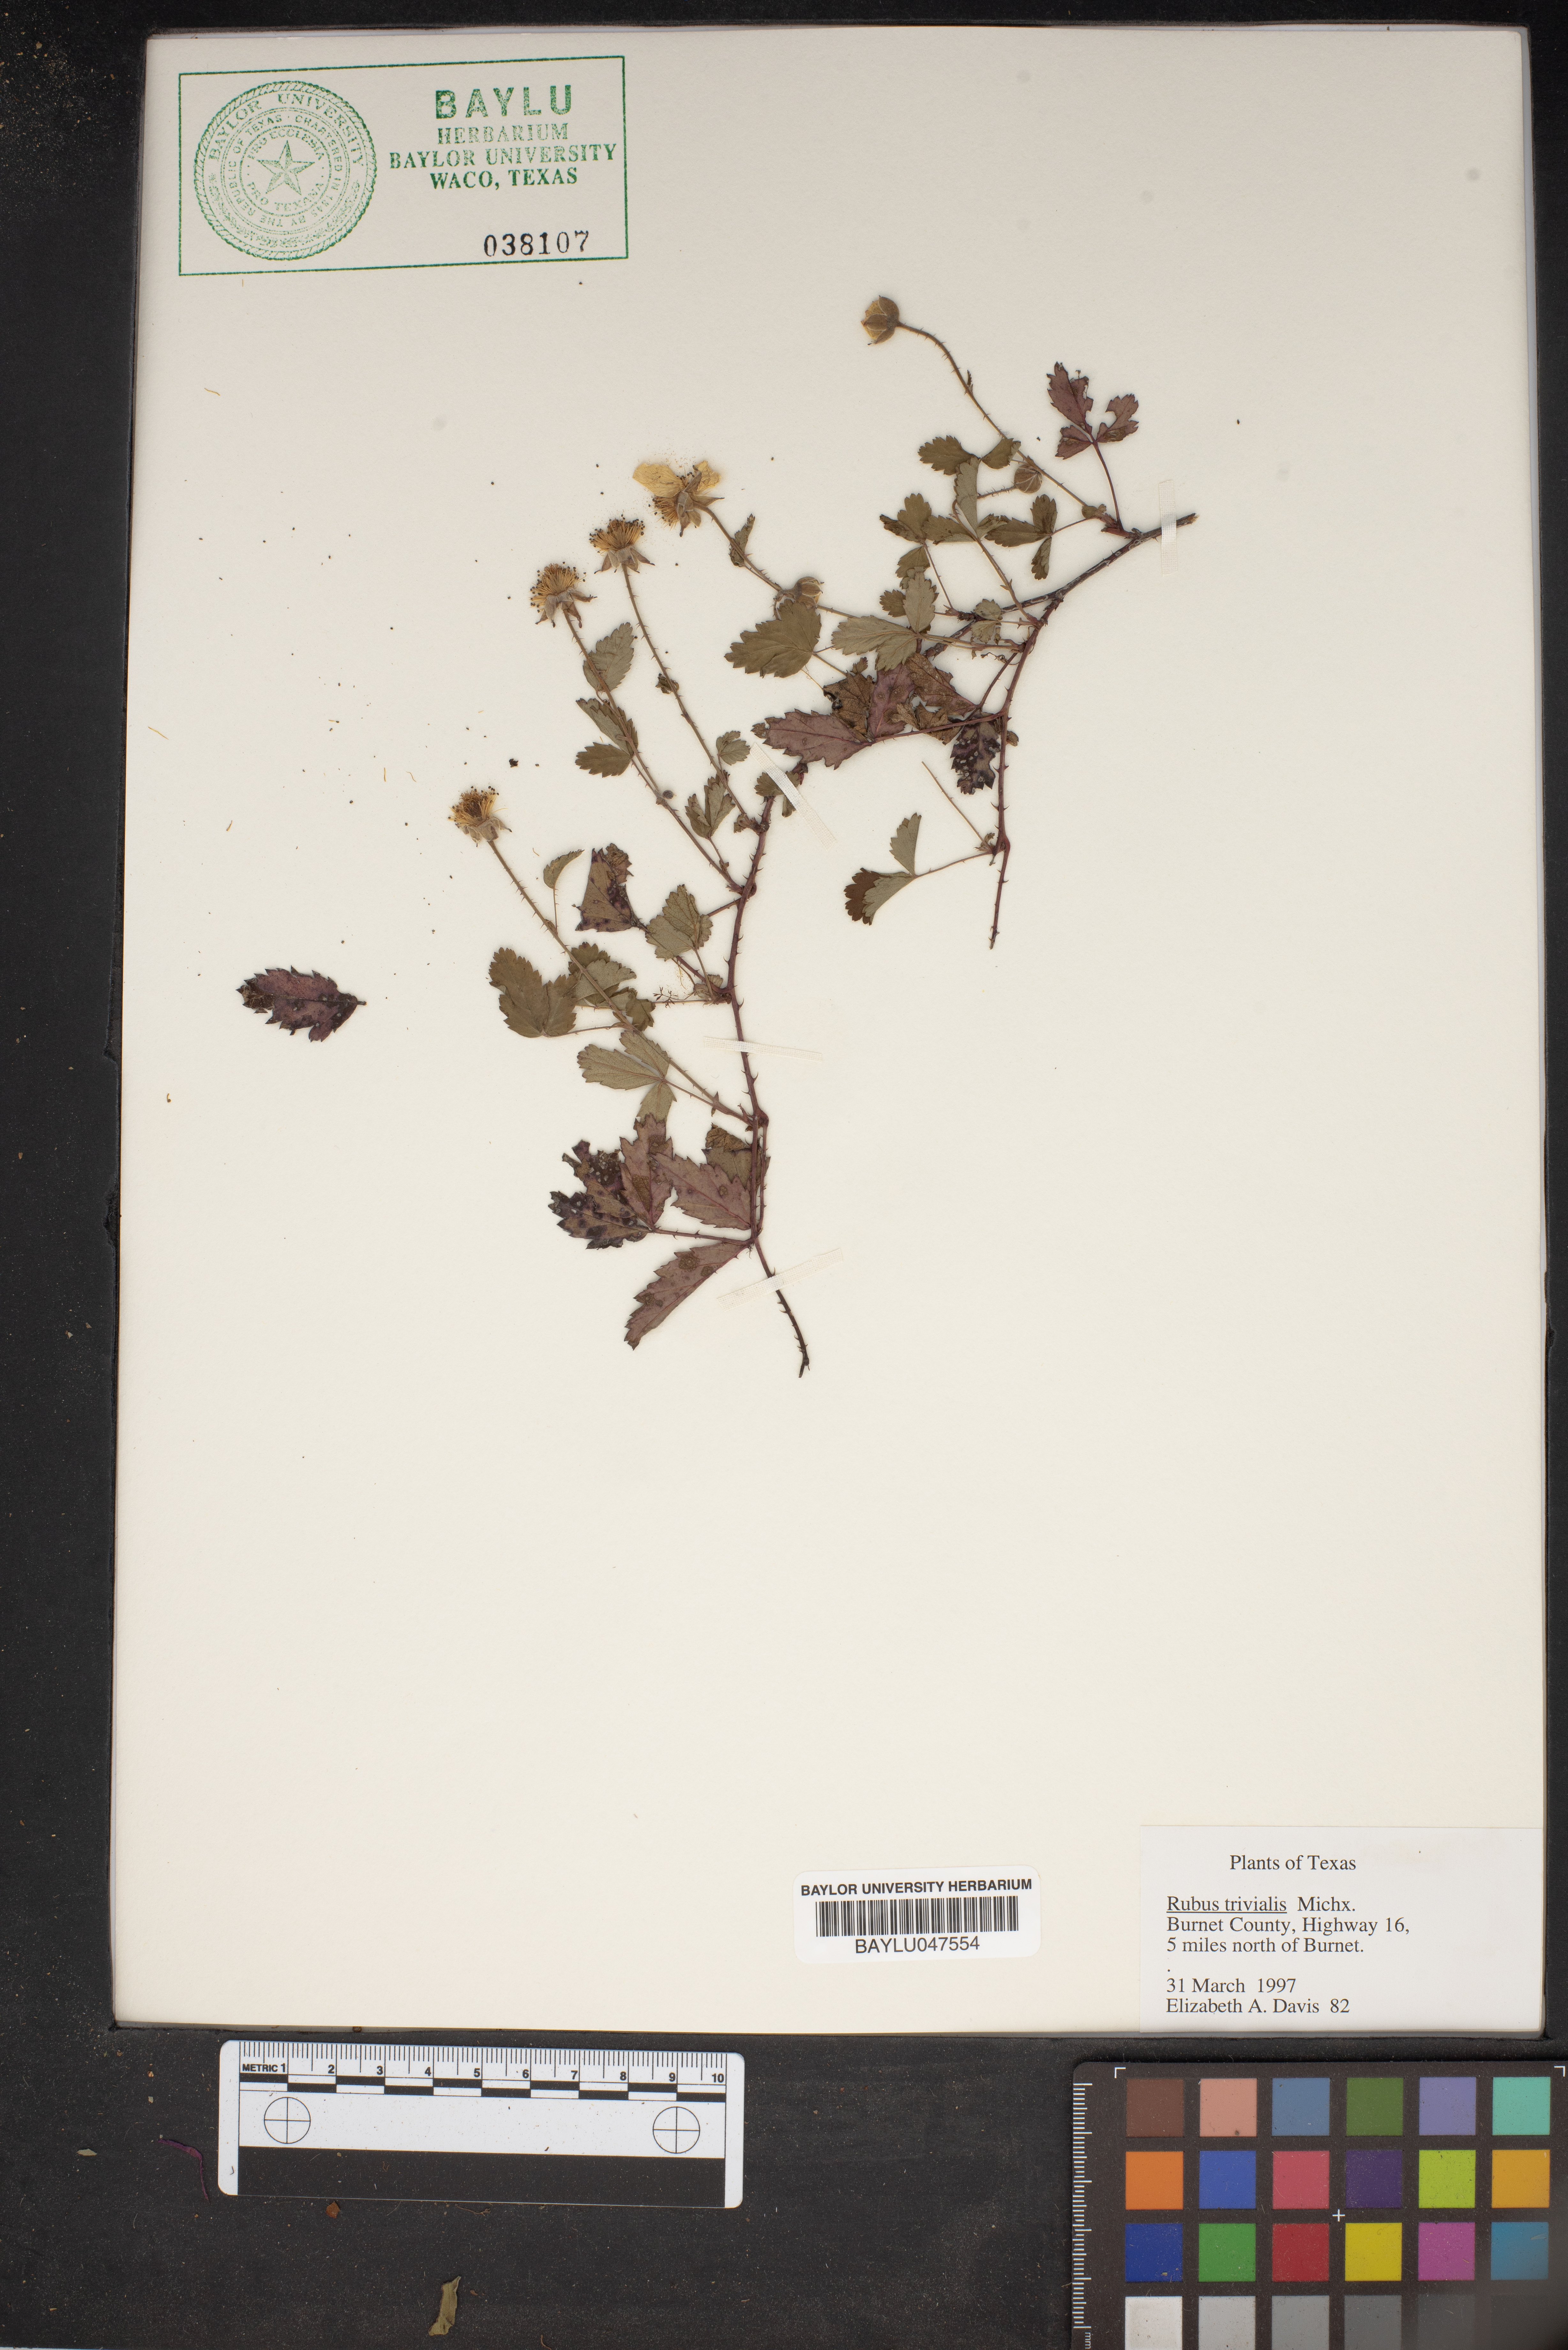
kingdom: Plantae
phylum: Tracheophyta
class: Magnoliopsida
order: Rosales
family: Rosaceae
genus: Rubus
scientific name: Rubus trivialis
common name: Southern dewberry
